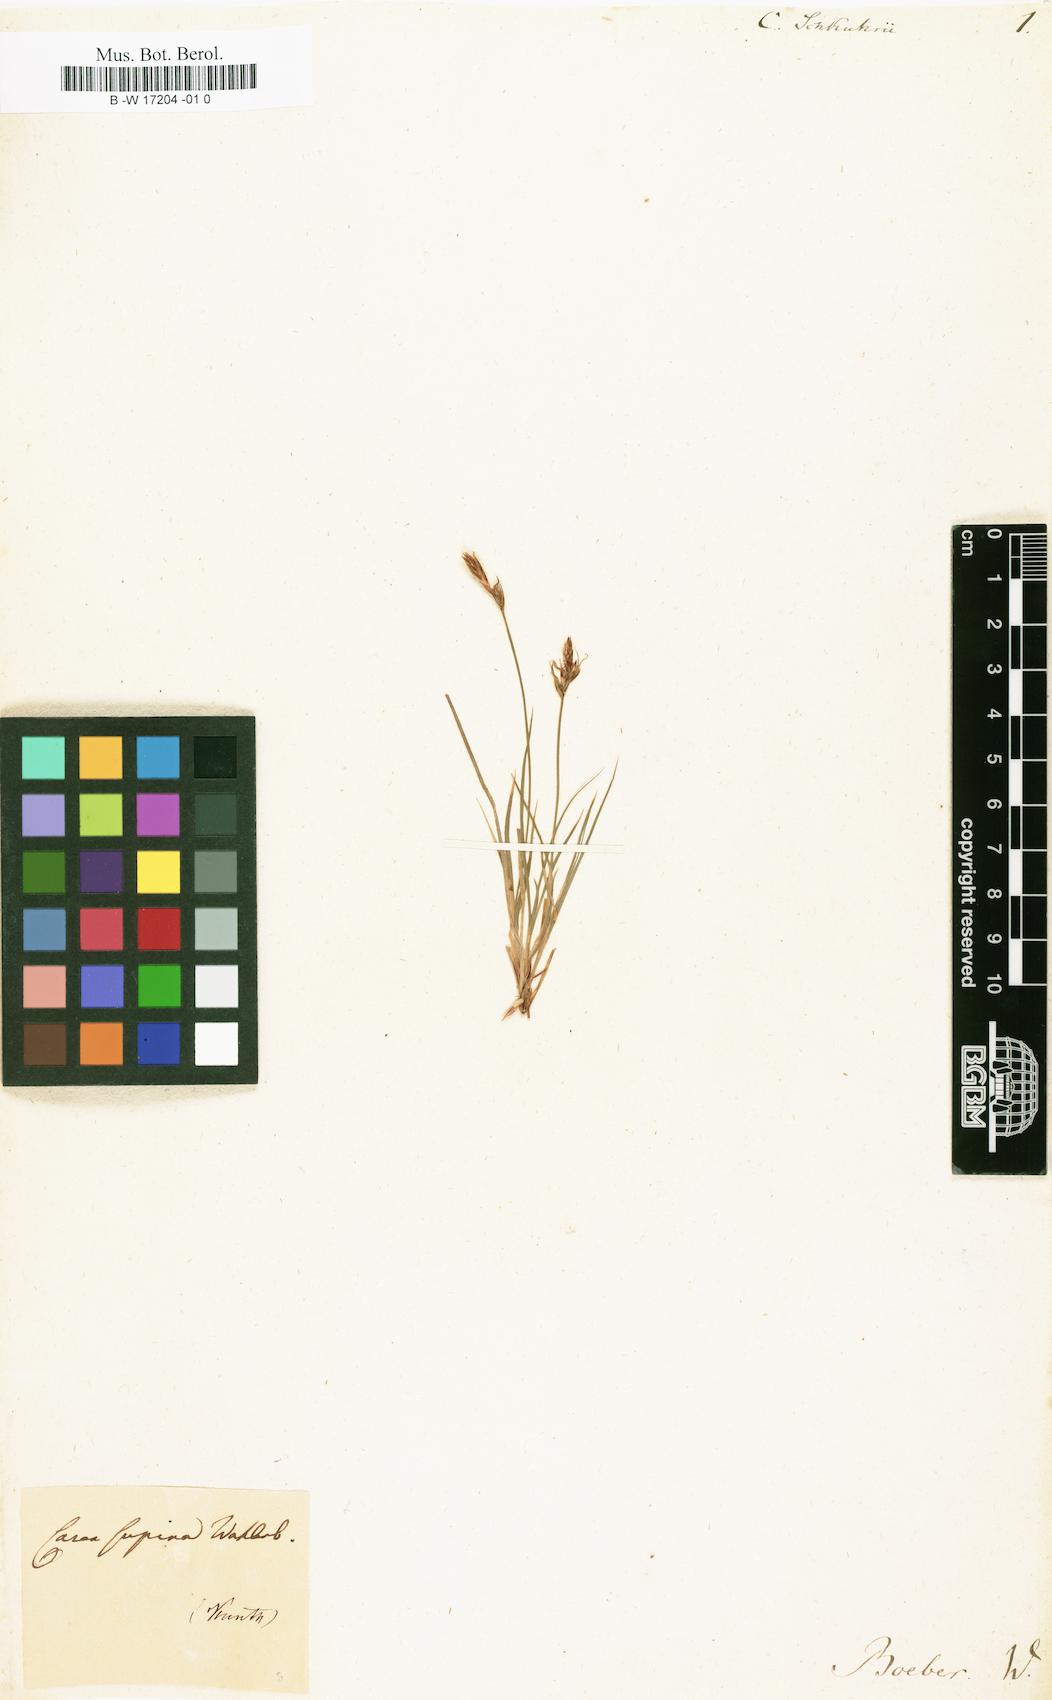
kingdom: Plantae
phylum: Tracheophyta
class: Liliopsida
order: Poales
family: Cyperaceae
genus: Carex
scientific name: Carex liparocarpos
